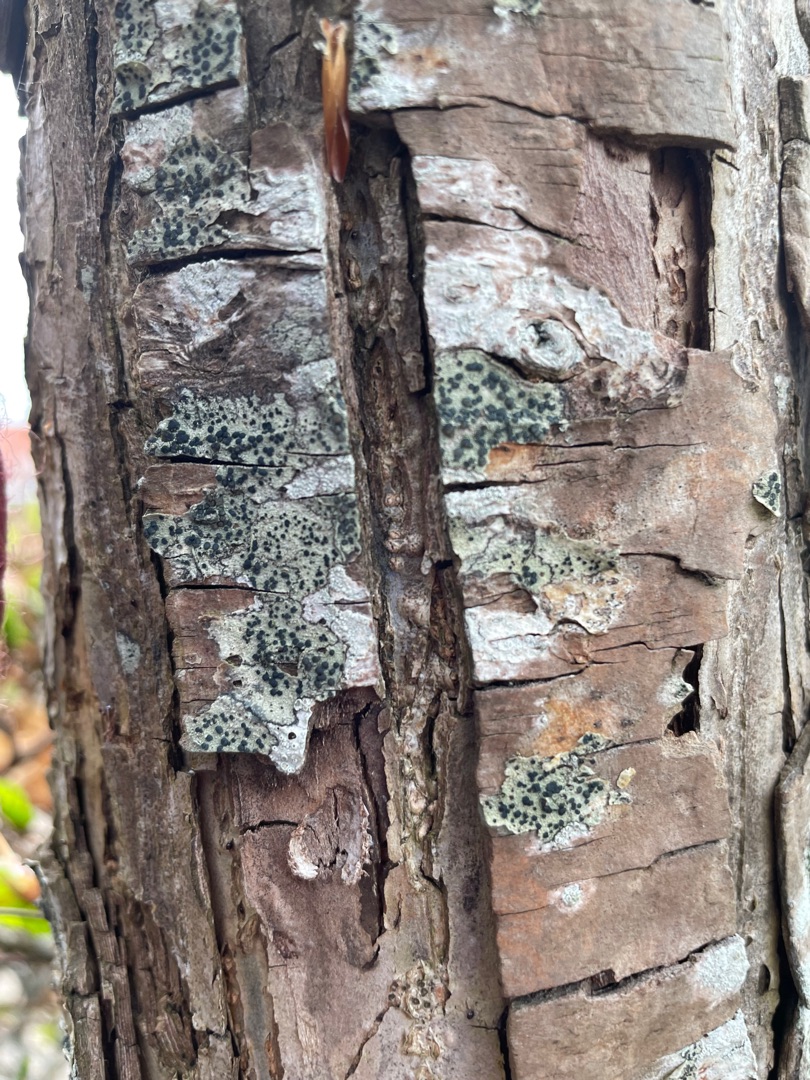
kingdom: Fungi
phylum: Ascomycota
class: Lecanoromycetes
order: Lecanorales
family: Lecanoraceae
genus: Lecidella
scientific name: Lecidella elaeochroma
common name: Grågrøn skivelav
